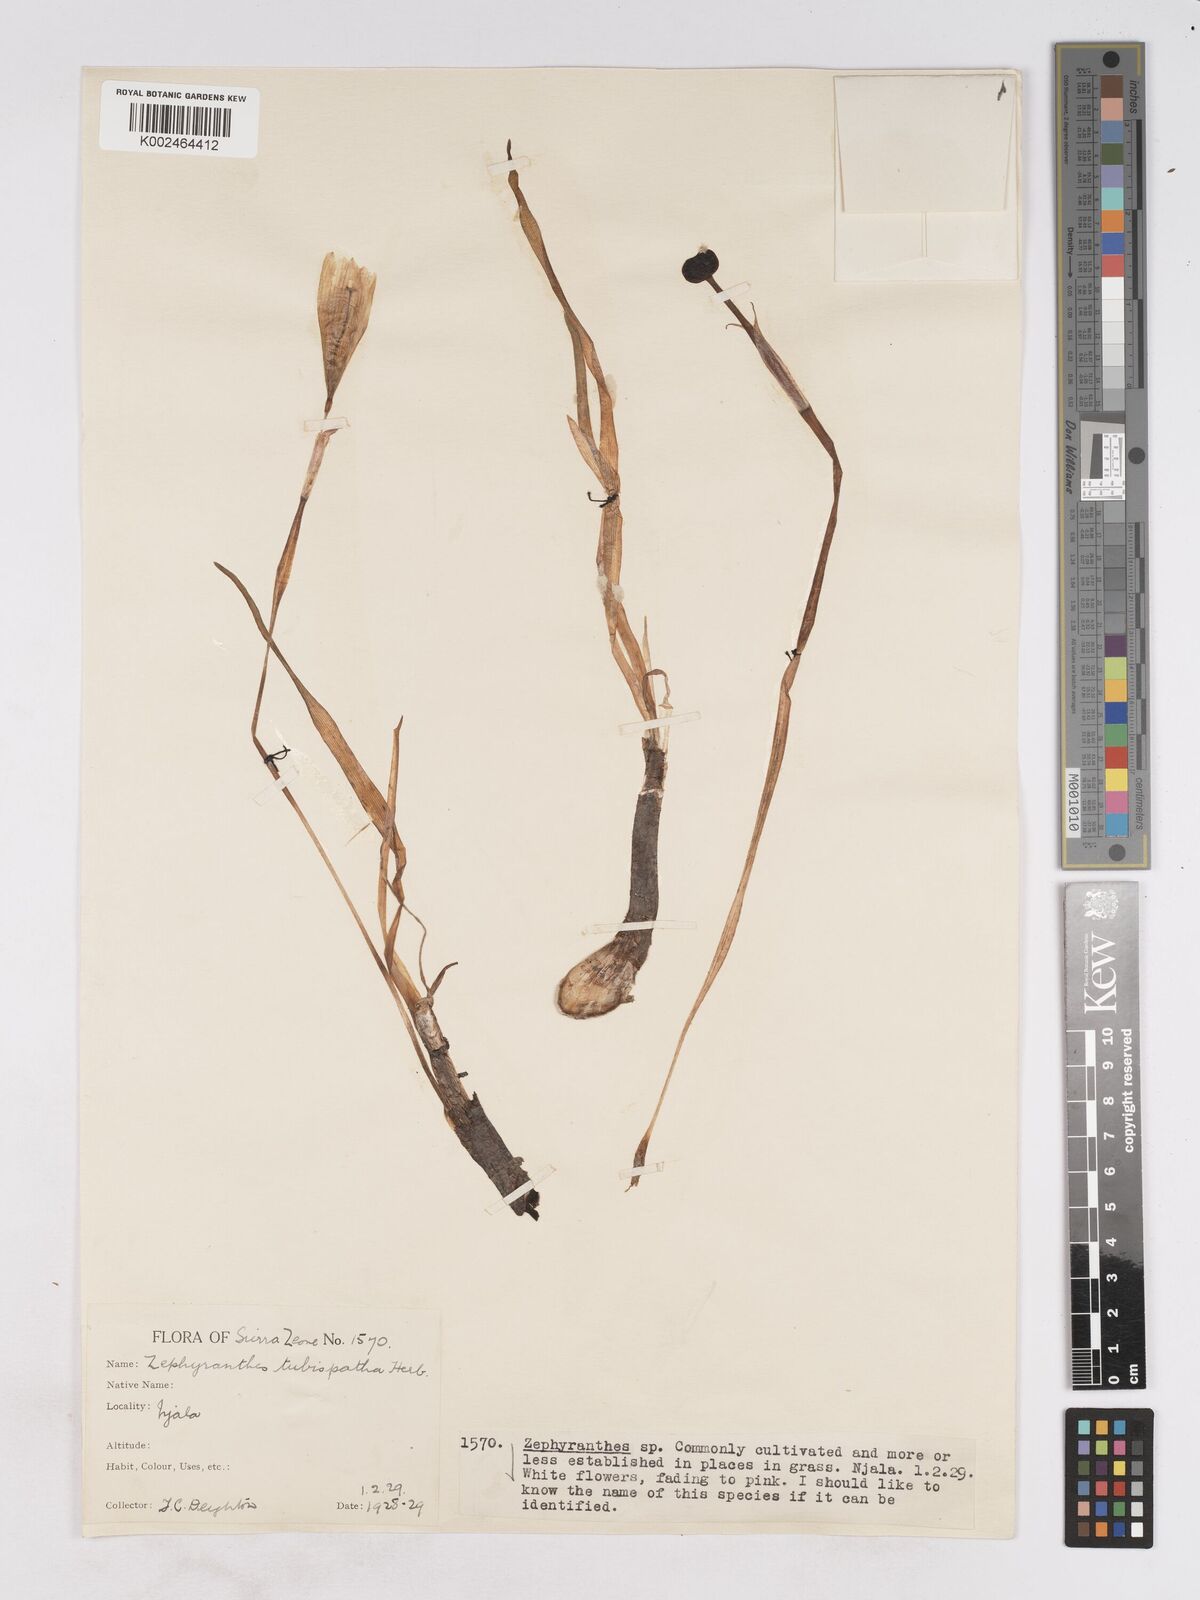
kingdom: Plantae
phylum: Tracheophyta
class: Liliopsida
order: Asparagales
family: Amaryllidaceae
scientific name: Amaryllidaceae
